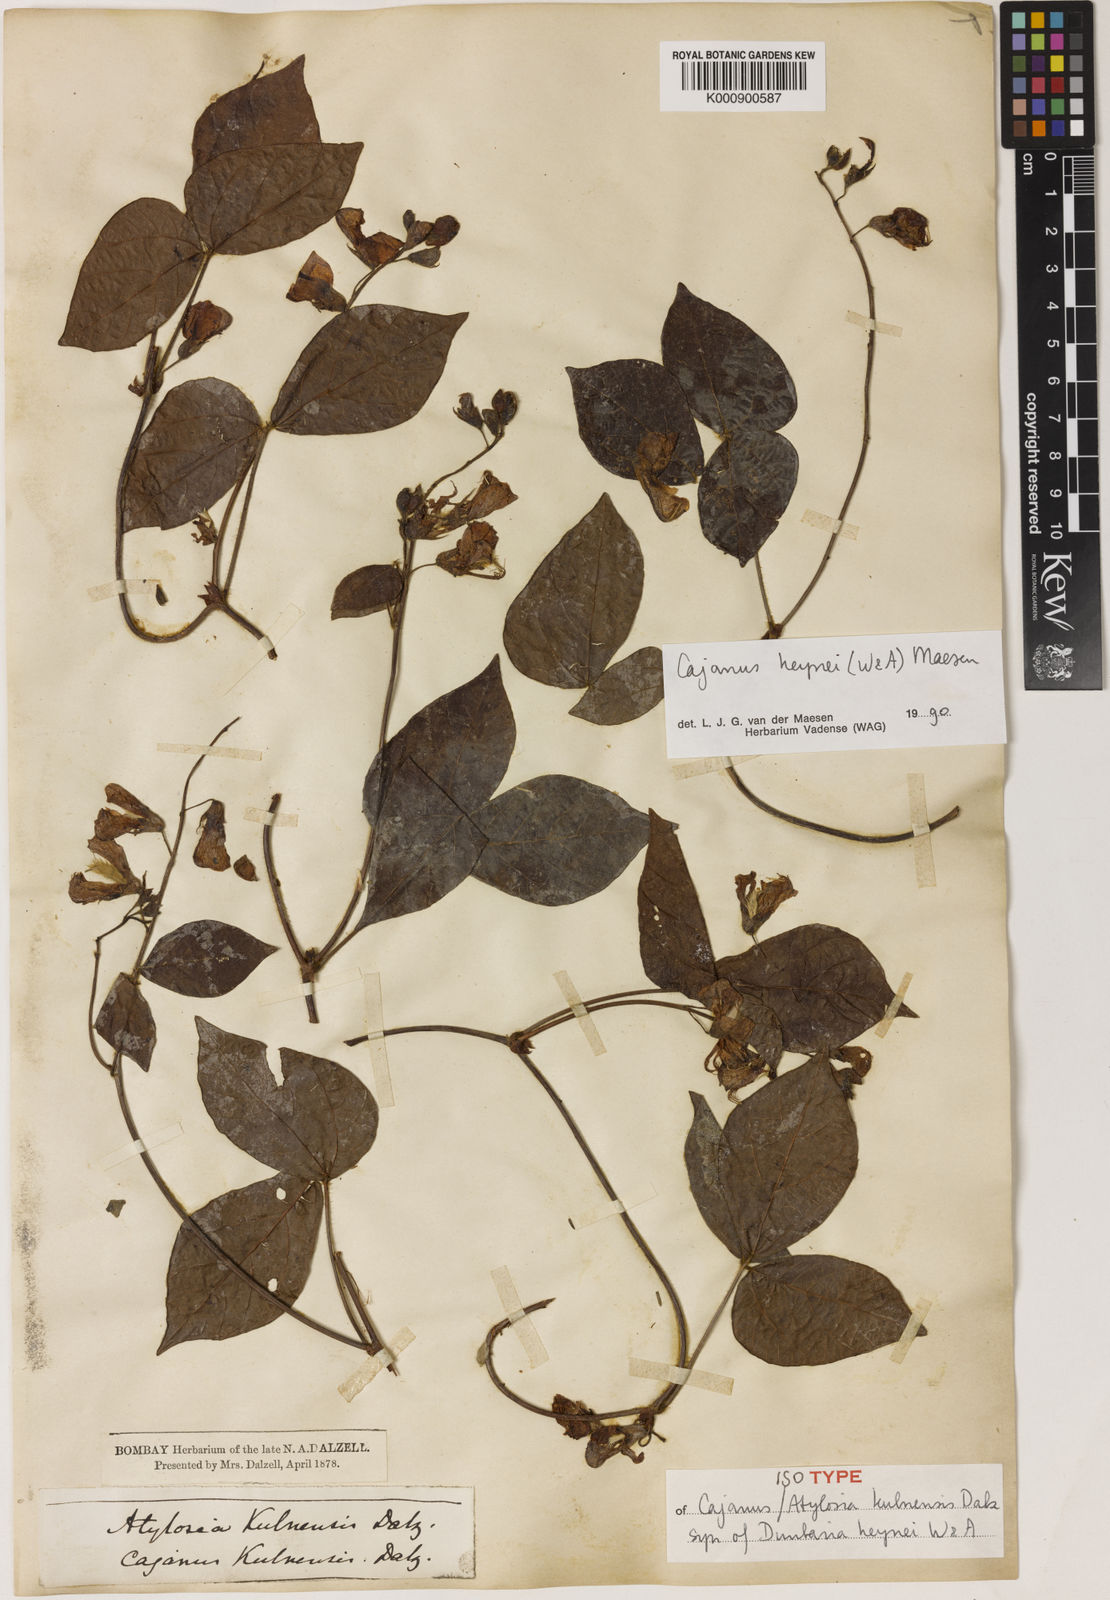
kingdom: Plantae
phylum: Tracheophyta
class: Magnoliopsida
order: Fabales
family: Fabaceae
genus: Cajanus
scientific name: Cajanus heynei
